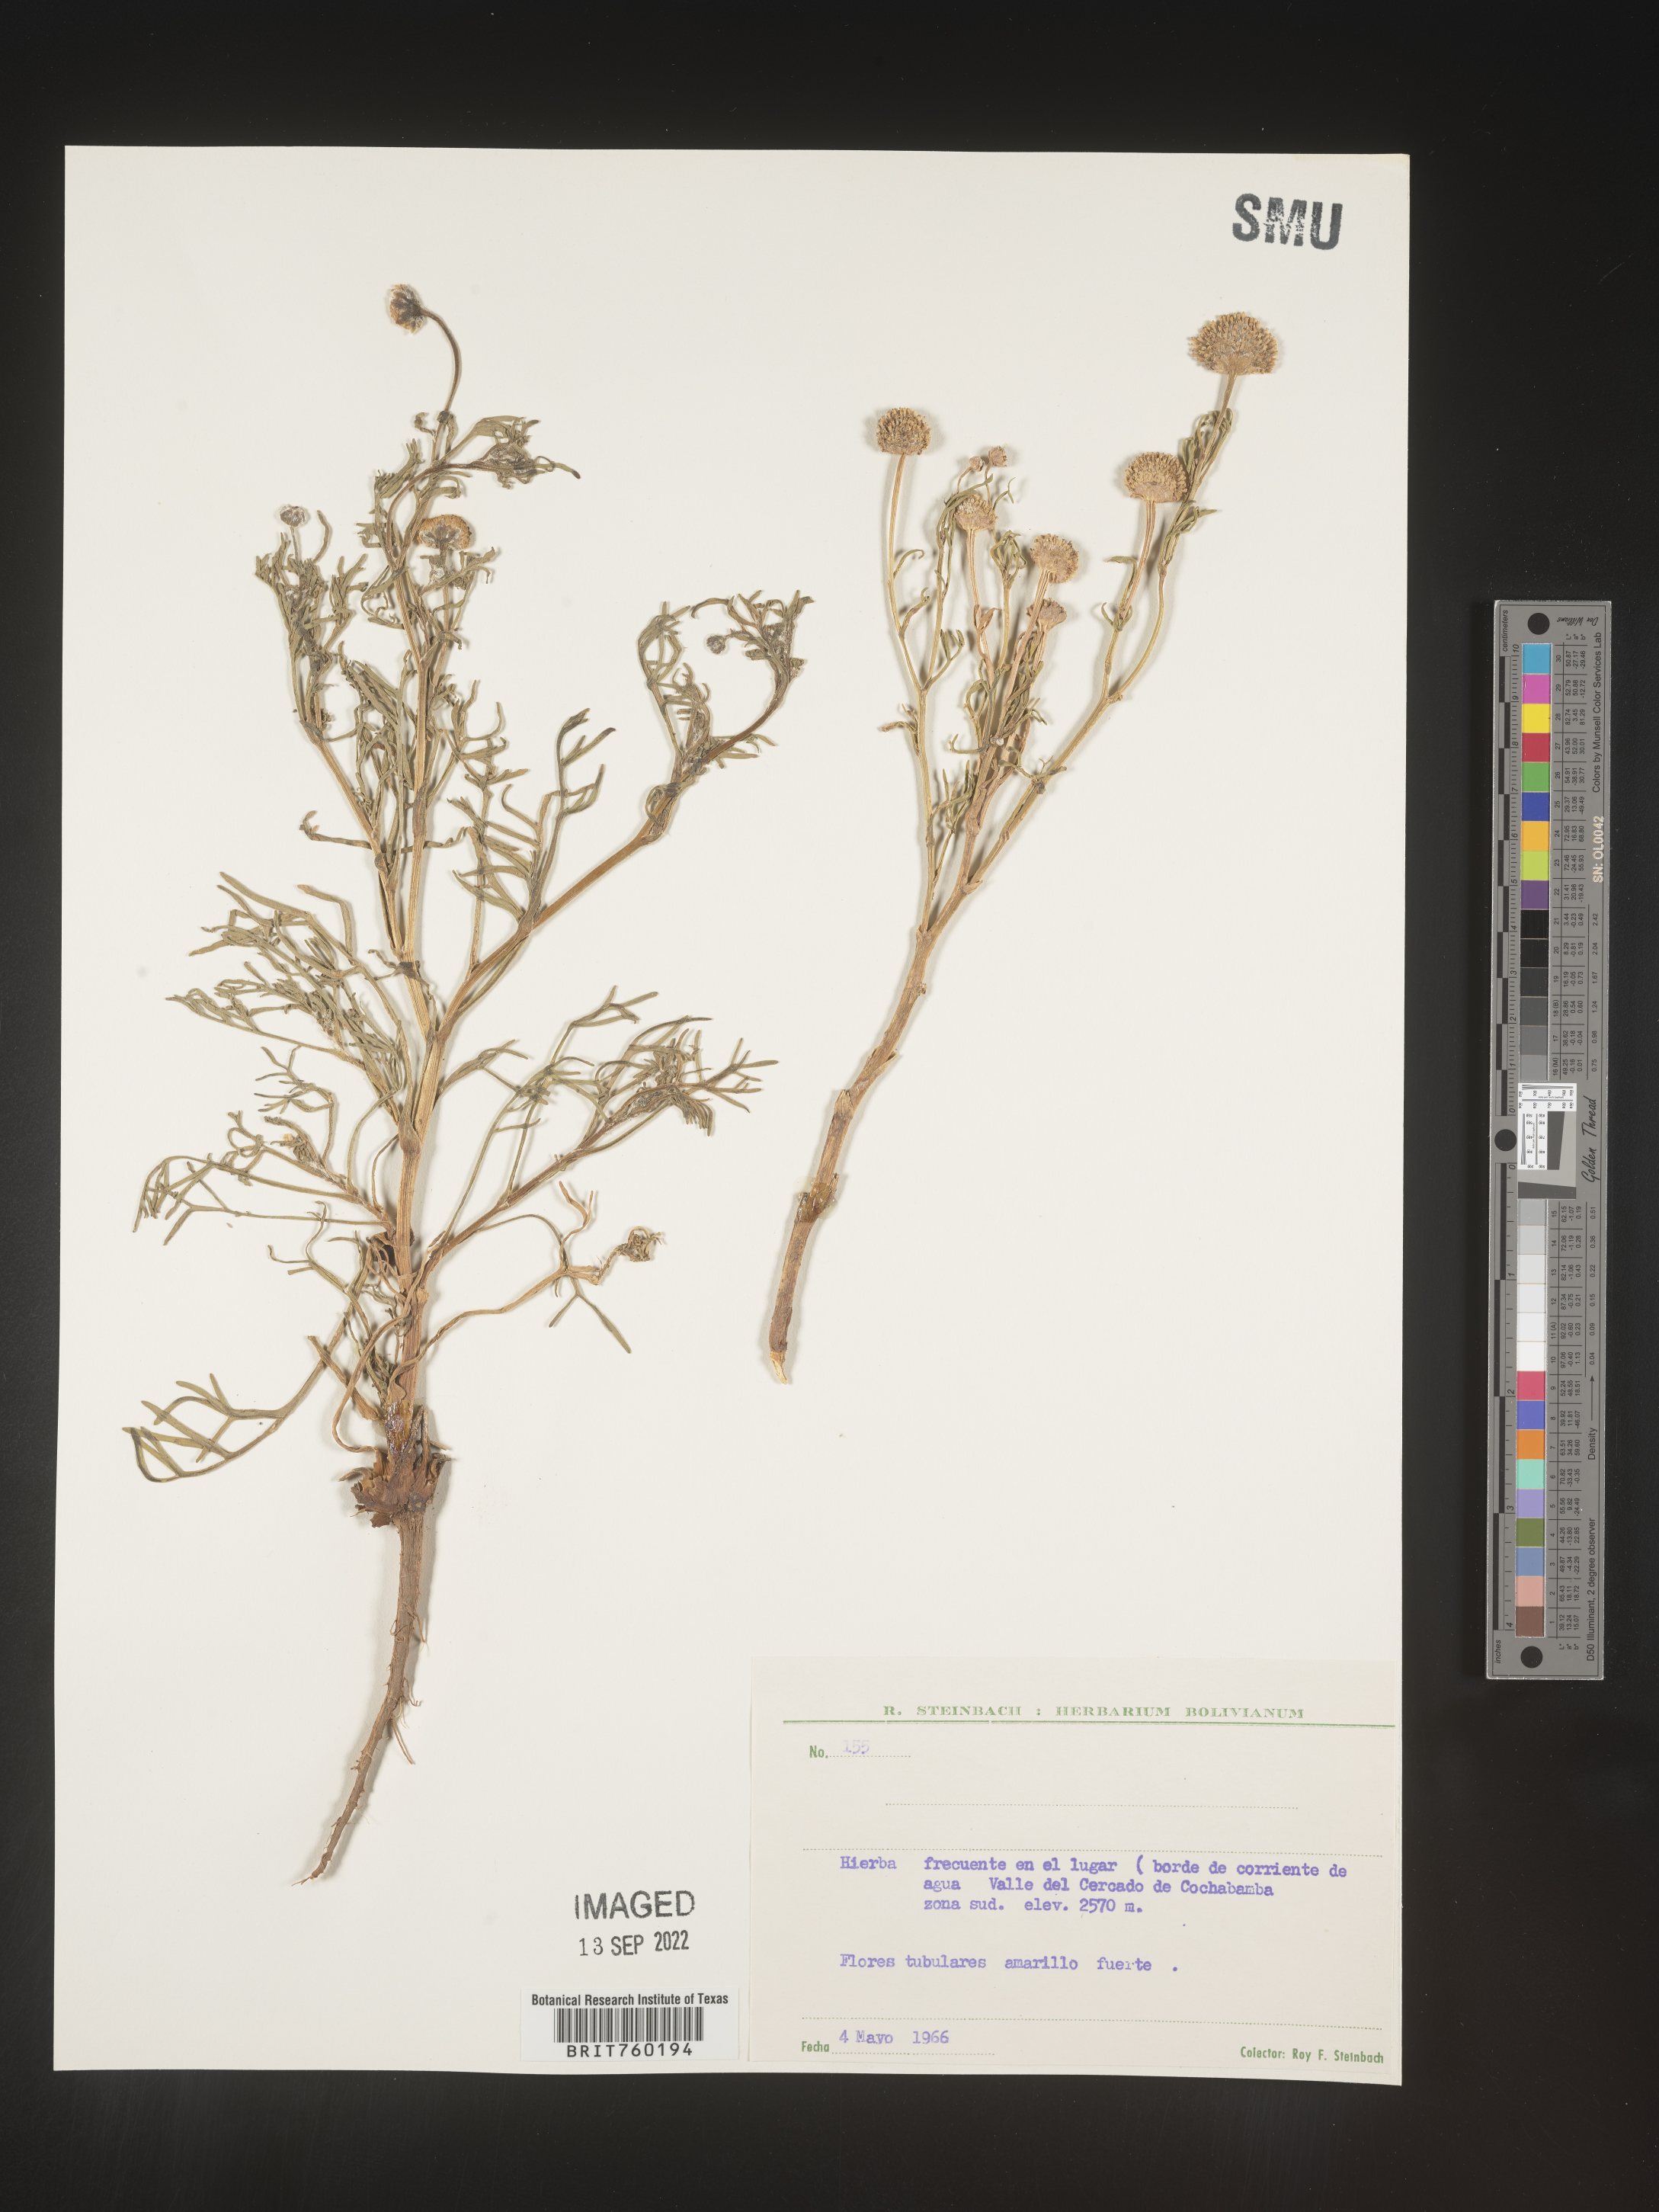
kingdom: Plantae
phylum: Tracheophyta
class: Magnoliopsida
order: Asterales
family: Asteraceae
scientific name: Asteraceae
